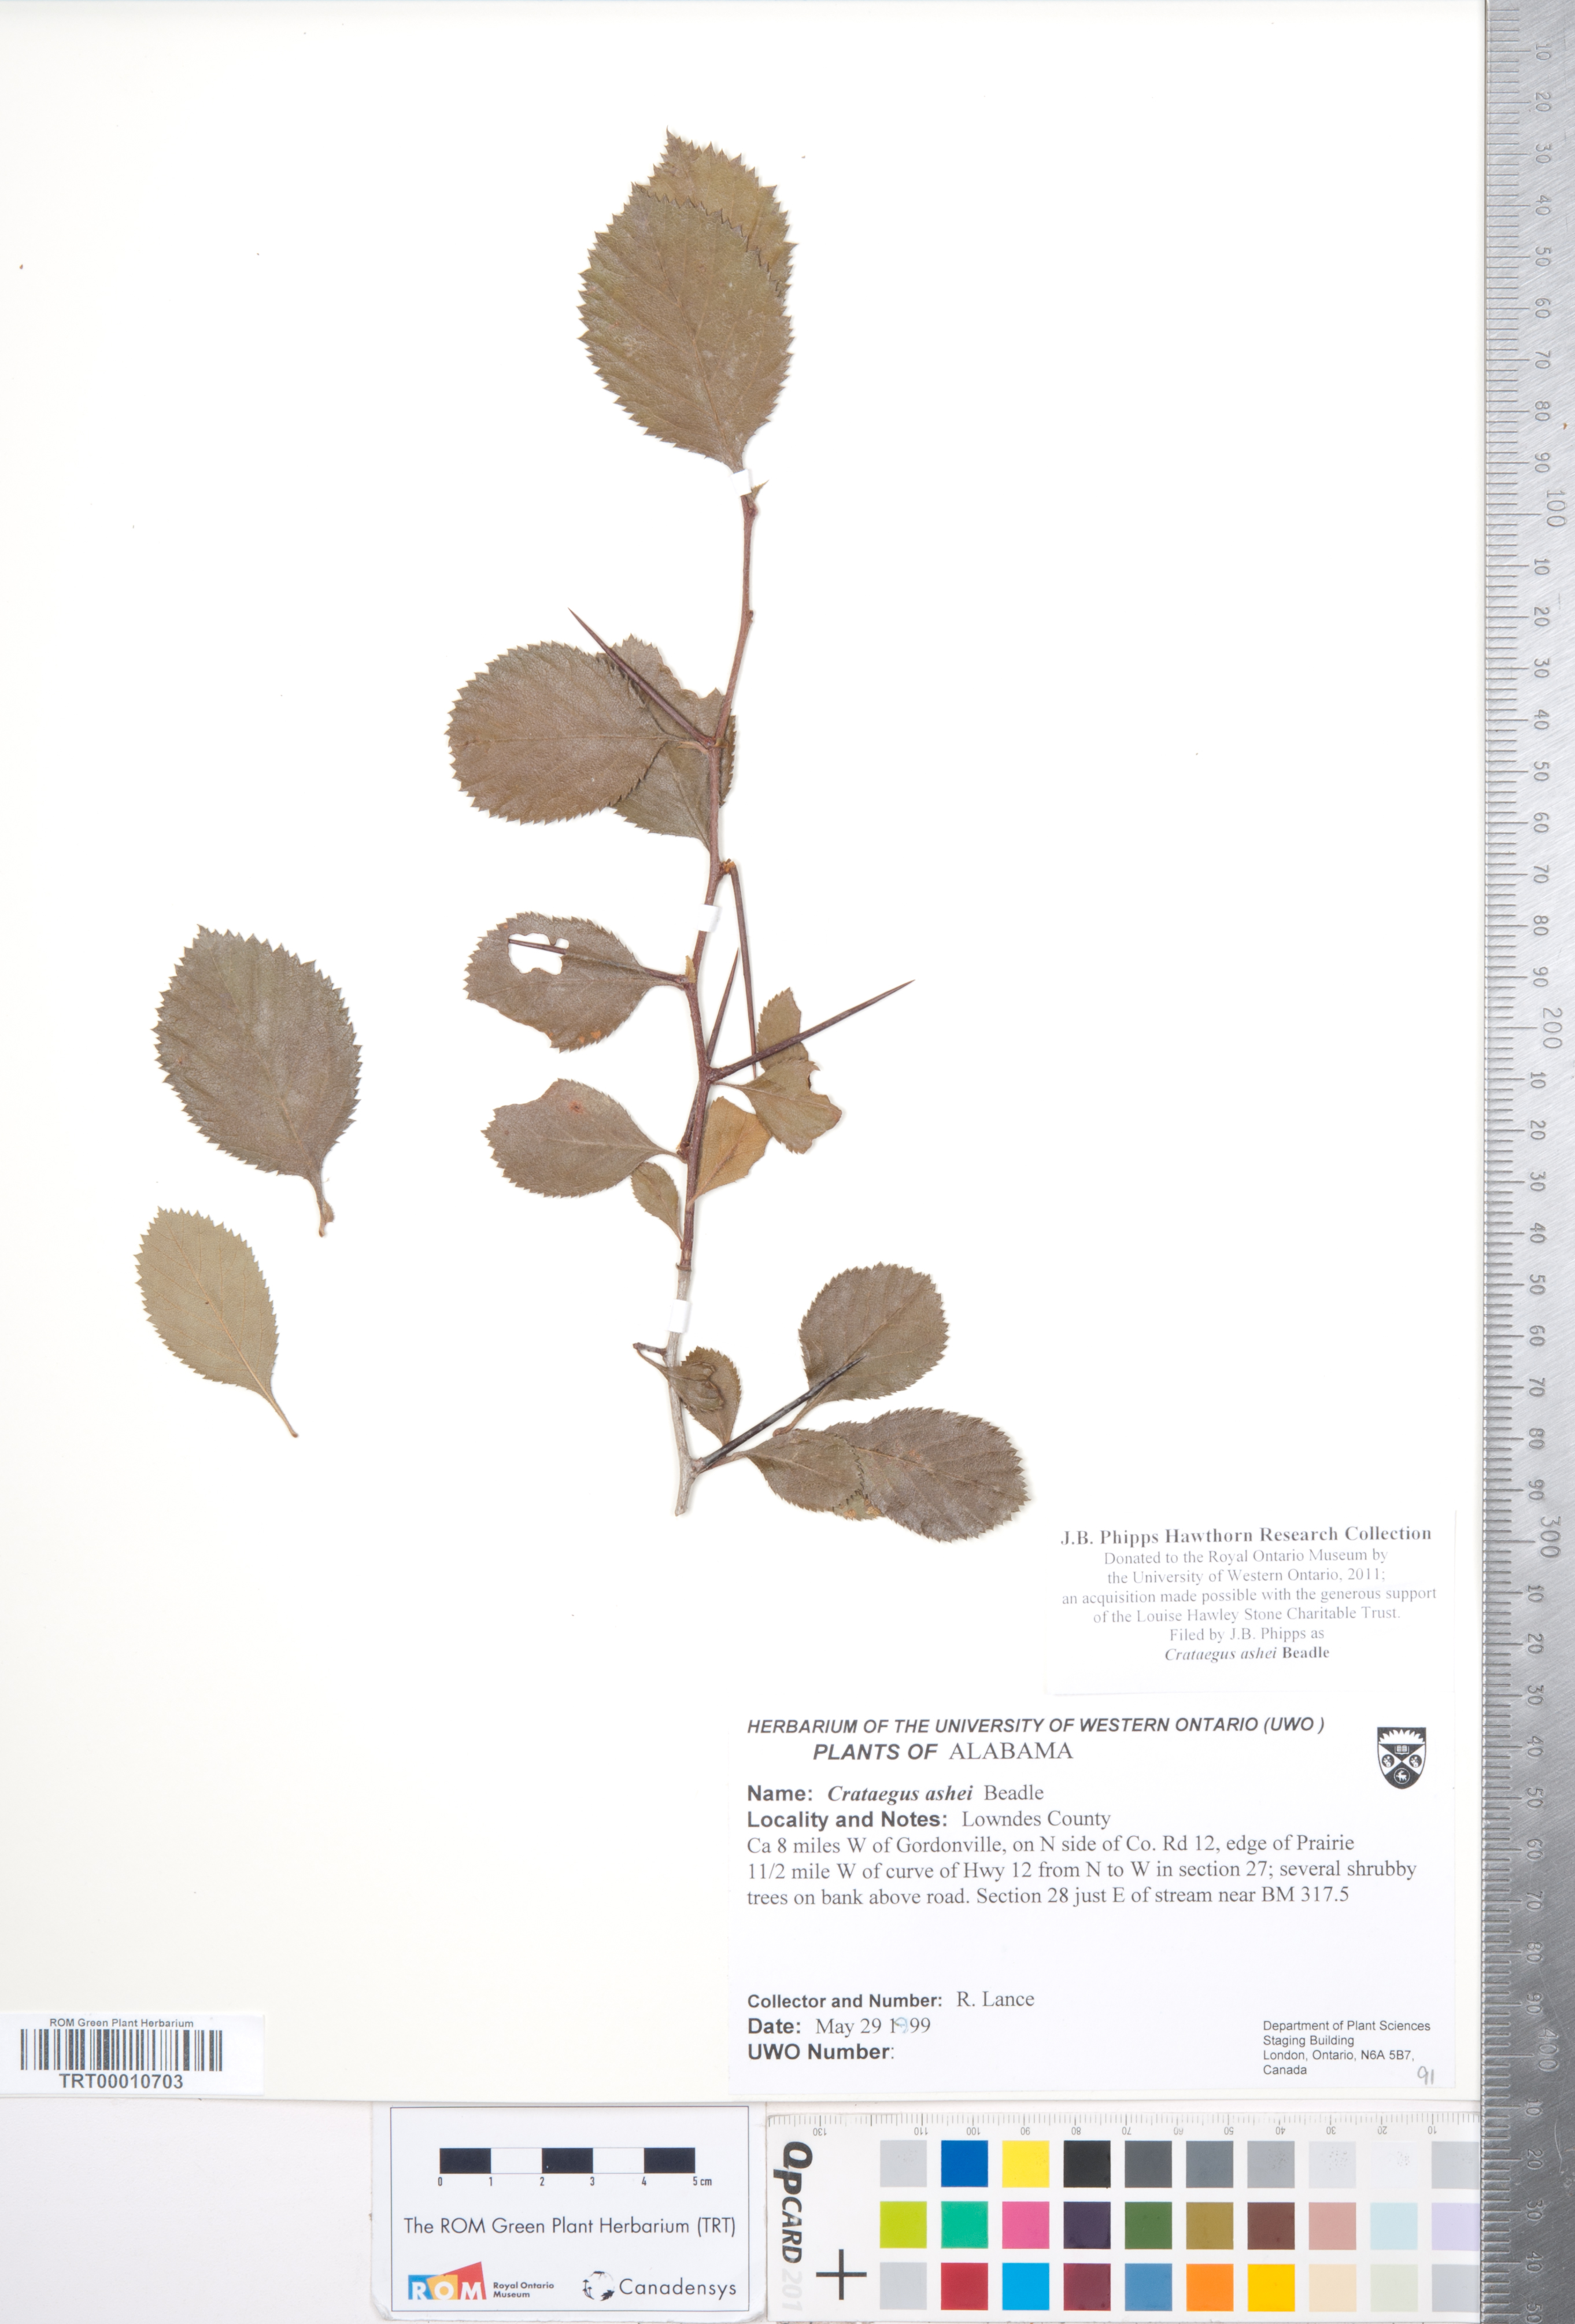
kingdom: Plantae
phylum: Tracheophyta
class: Magnoliopsida
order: Rosales
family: Rosaceae
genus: Crataegus
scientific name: Crataegus ashei
